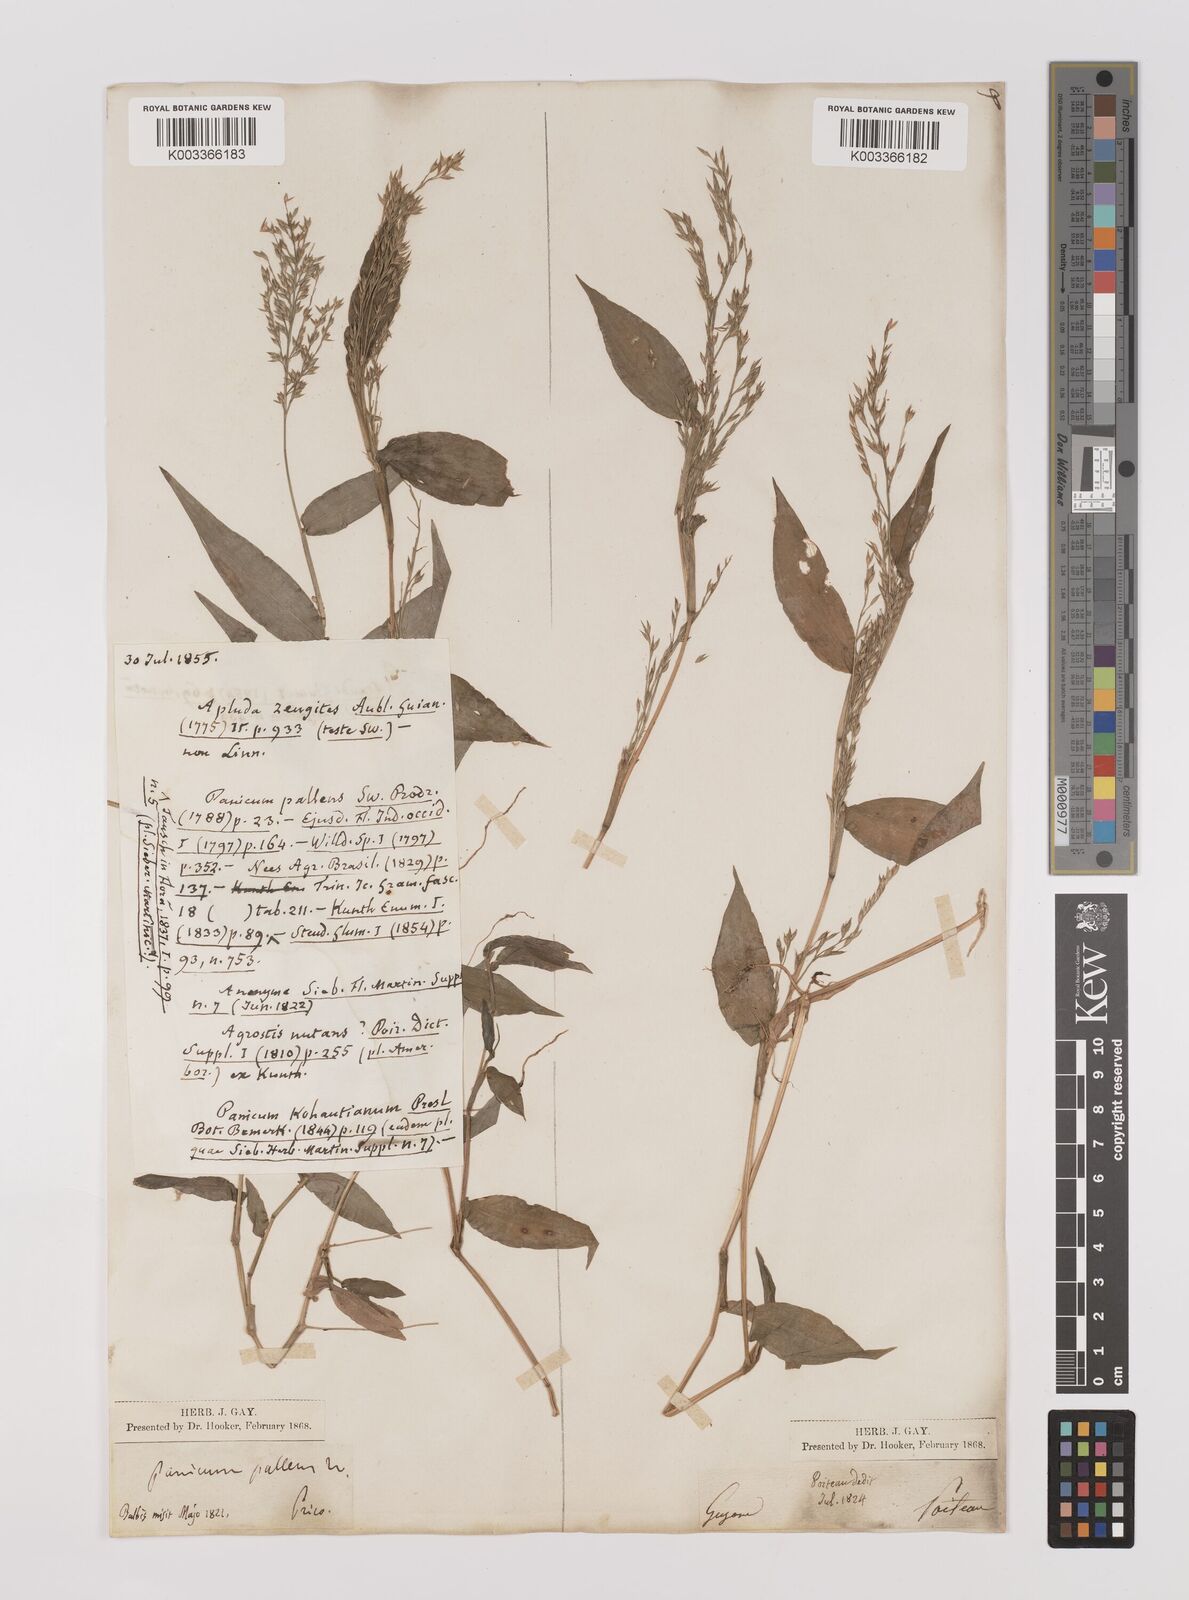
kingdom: Plantae
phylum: Tracheophyta
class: Liliopsida
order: Poales
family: Poaceae
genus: Ichnanthus
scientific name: Ichnanthus pallens
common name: Water grass
